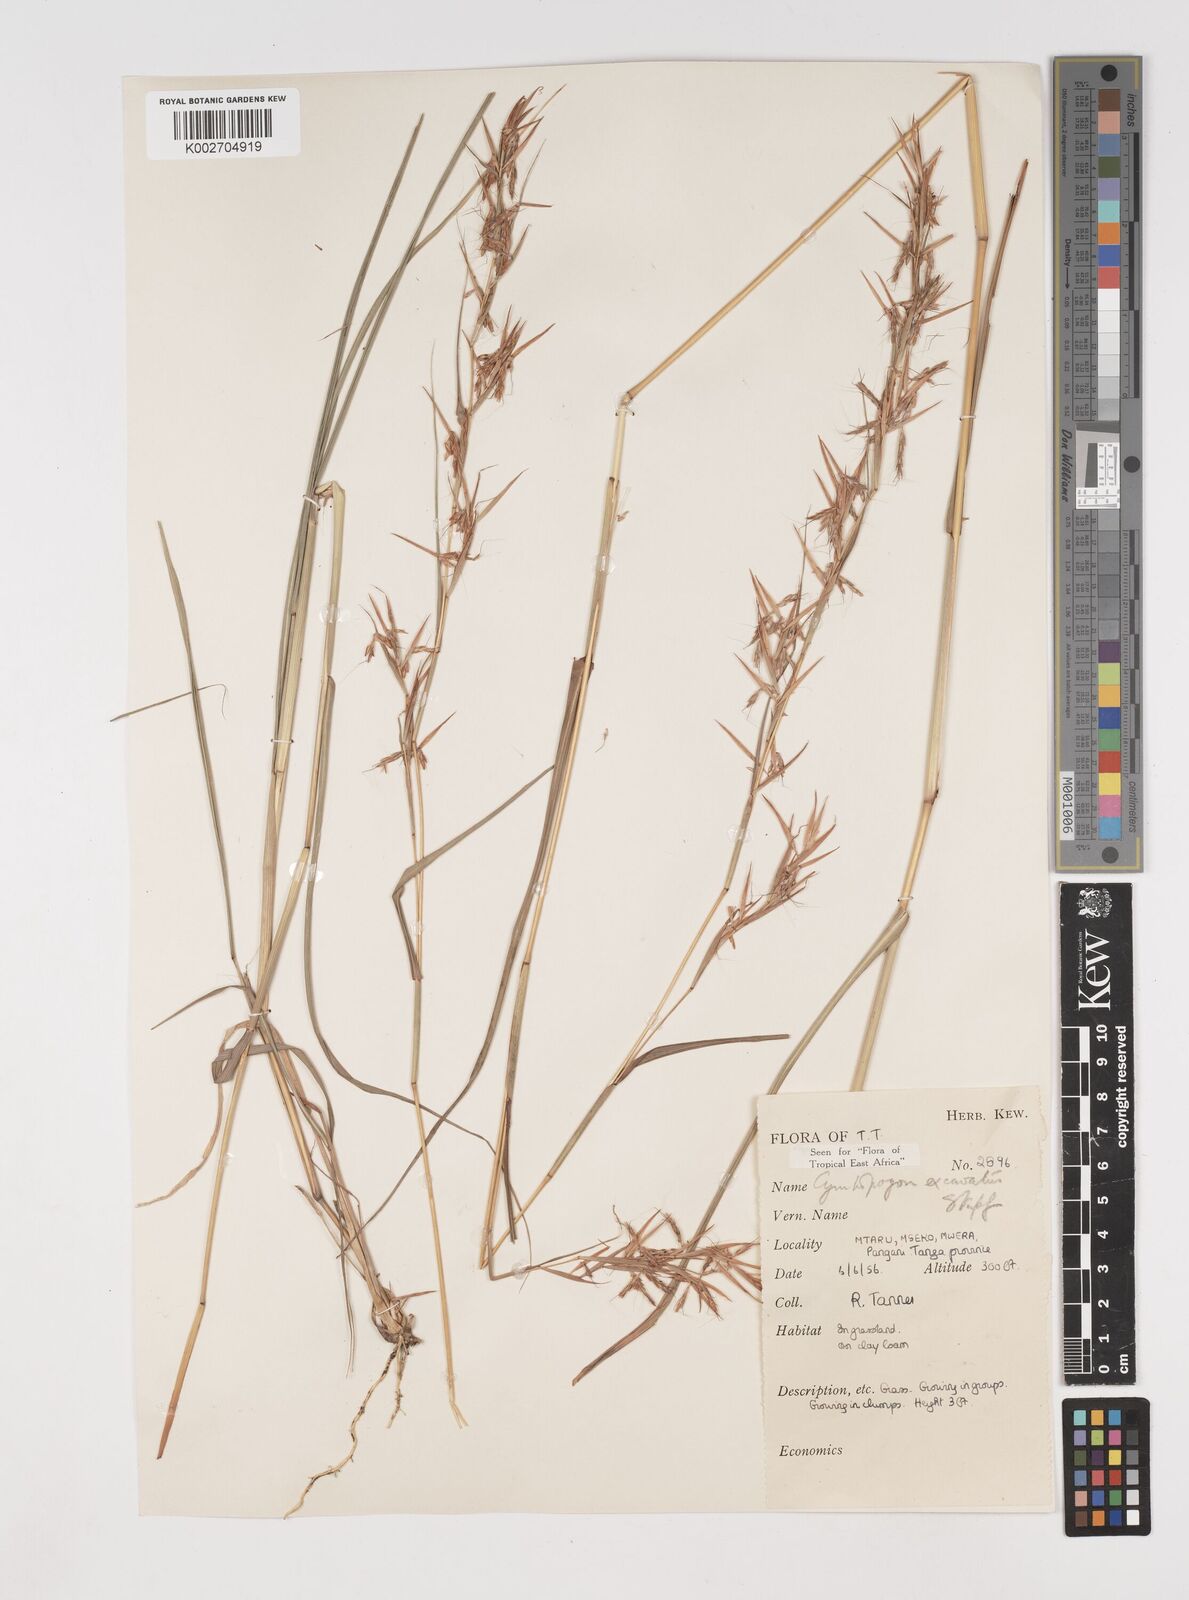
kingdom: Plantae
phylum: Tracheophyta
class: Liliopsida
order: Poales
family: Poaceae
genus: Cymbopogon
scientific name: Cymbopogon caesius
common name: Kachi grass
